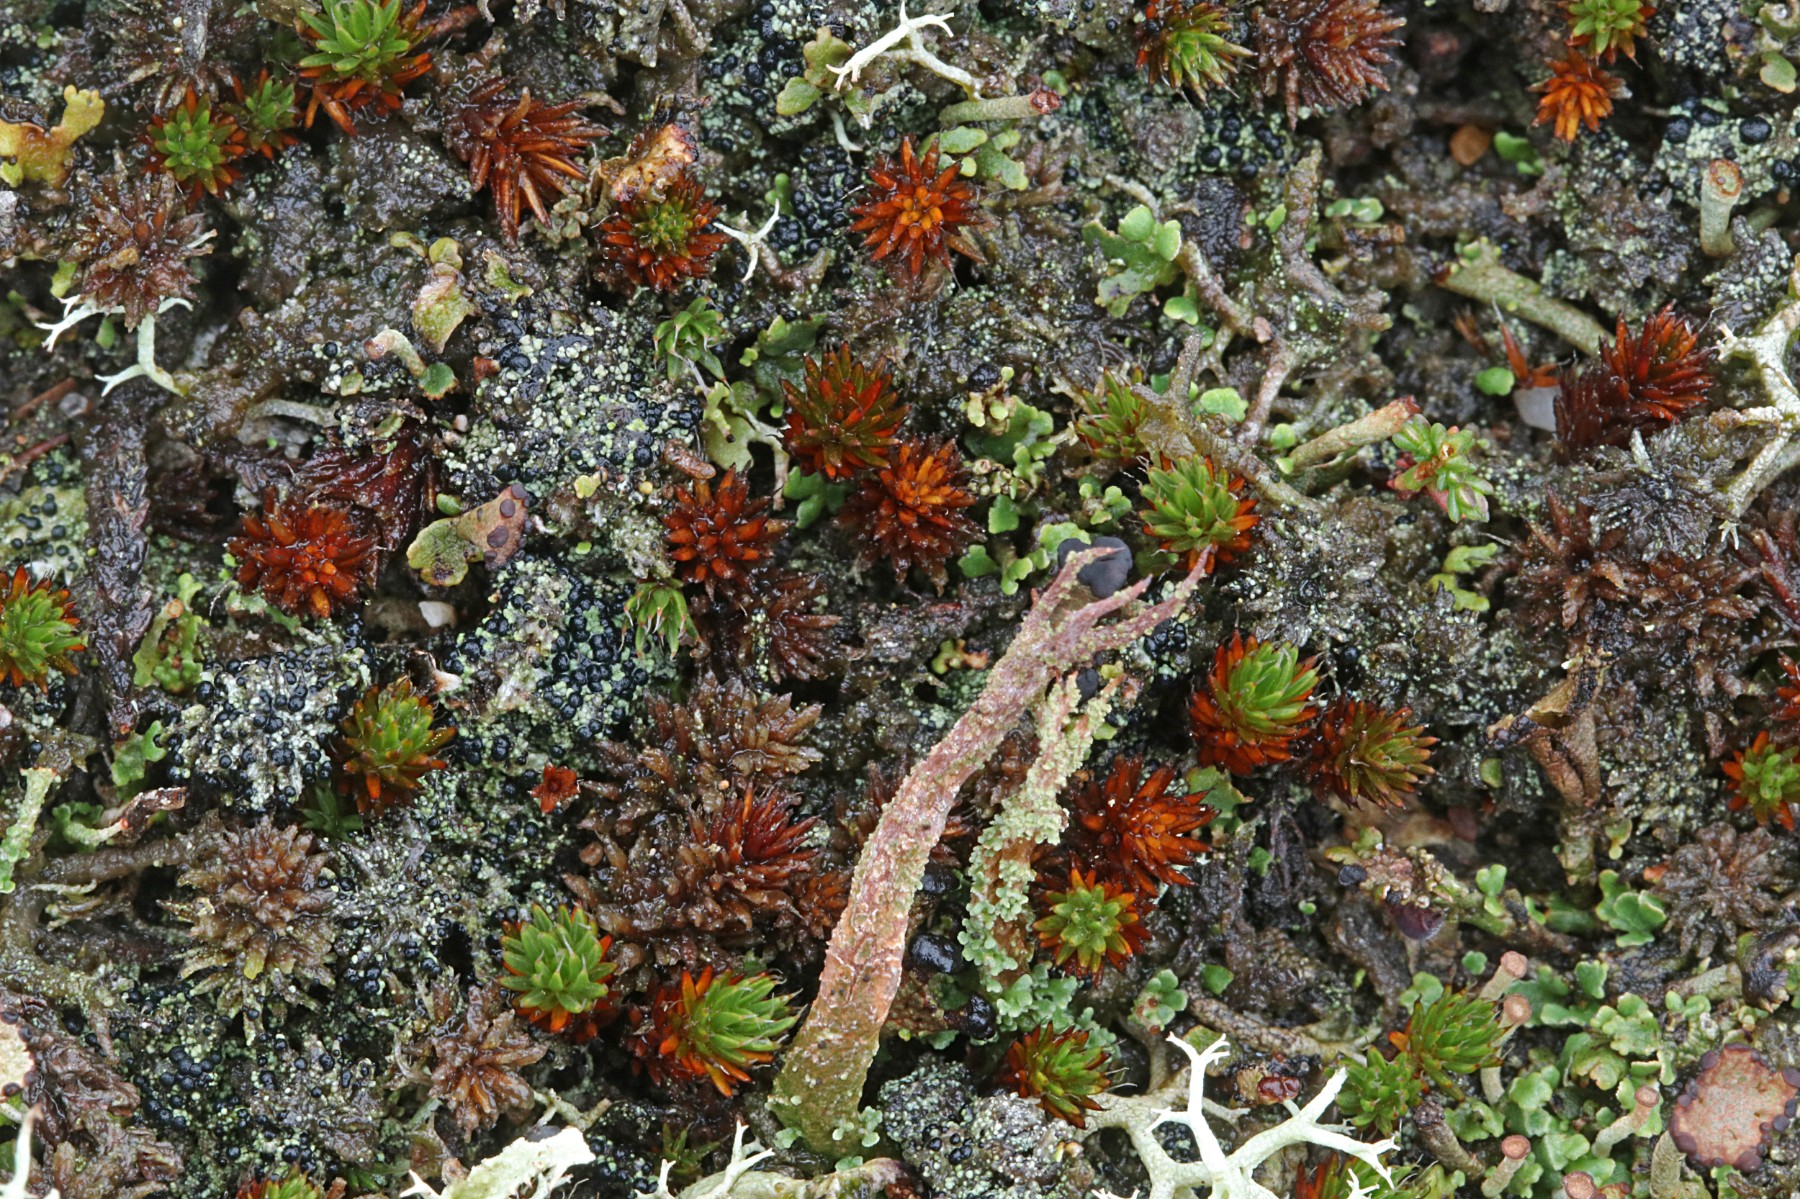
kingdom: Fungi
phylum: Ascomycota
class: Lecanoromycetes
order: Lecanorales
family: Byssolomataceae
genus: Micarea
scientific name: Micarea lignaria
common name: tørve-knaplav
